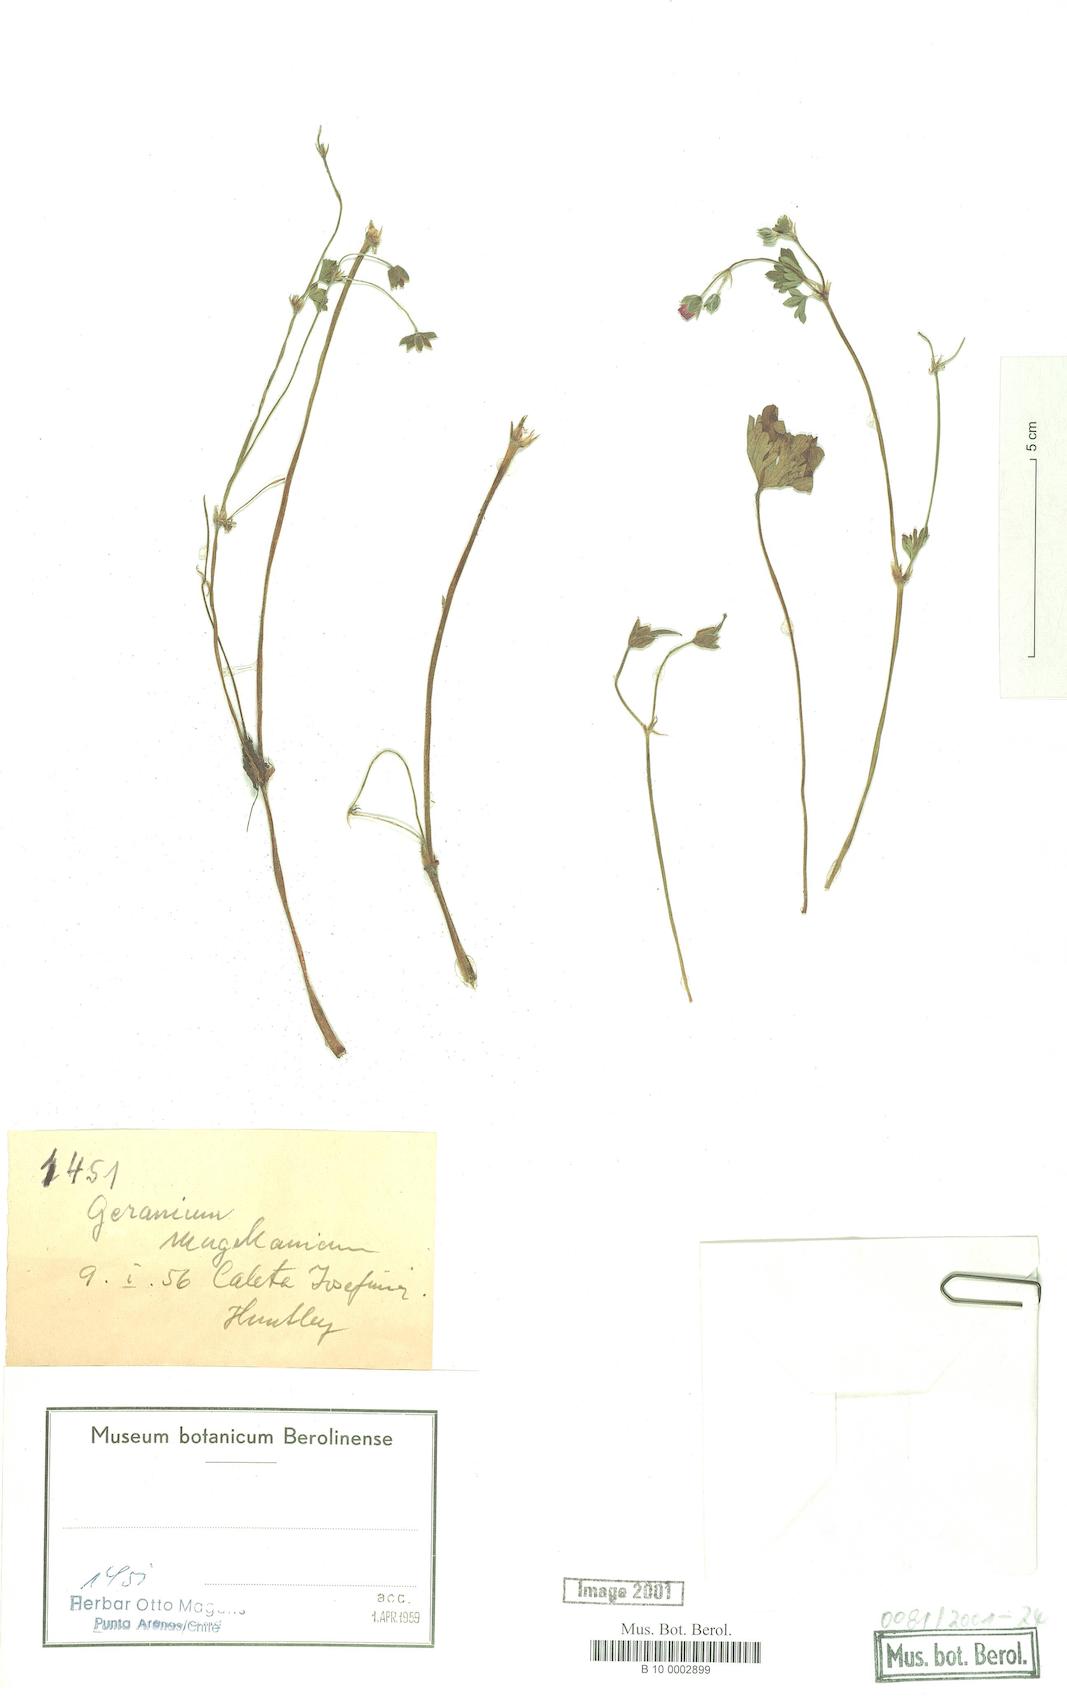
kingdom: Plantae
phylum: Tracheophyta
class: Magnoliopsida
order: Geraniales
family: Geraniaceae
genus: Geranium
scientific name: Geranium magellanicum
